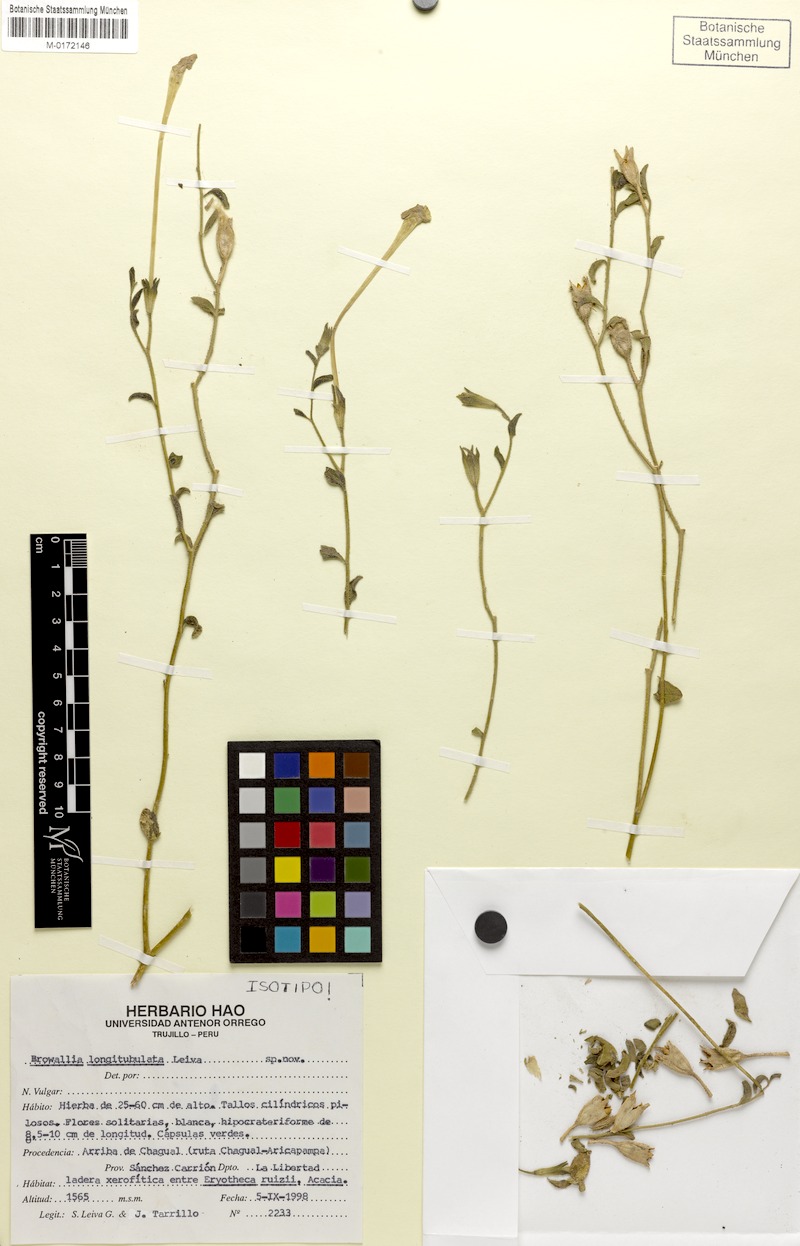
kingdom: Plantae
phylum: Tracheophyta
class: Magnoliopsida
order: Solanales
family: Solanaceae
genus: Browallia
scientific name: Browallia
